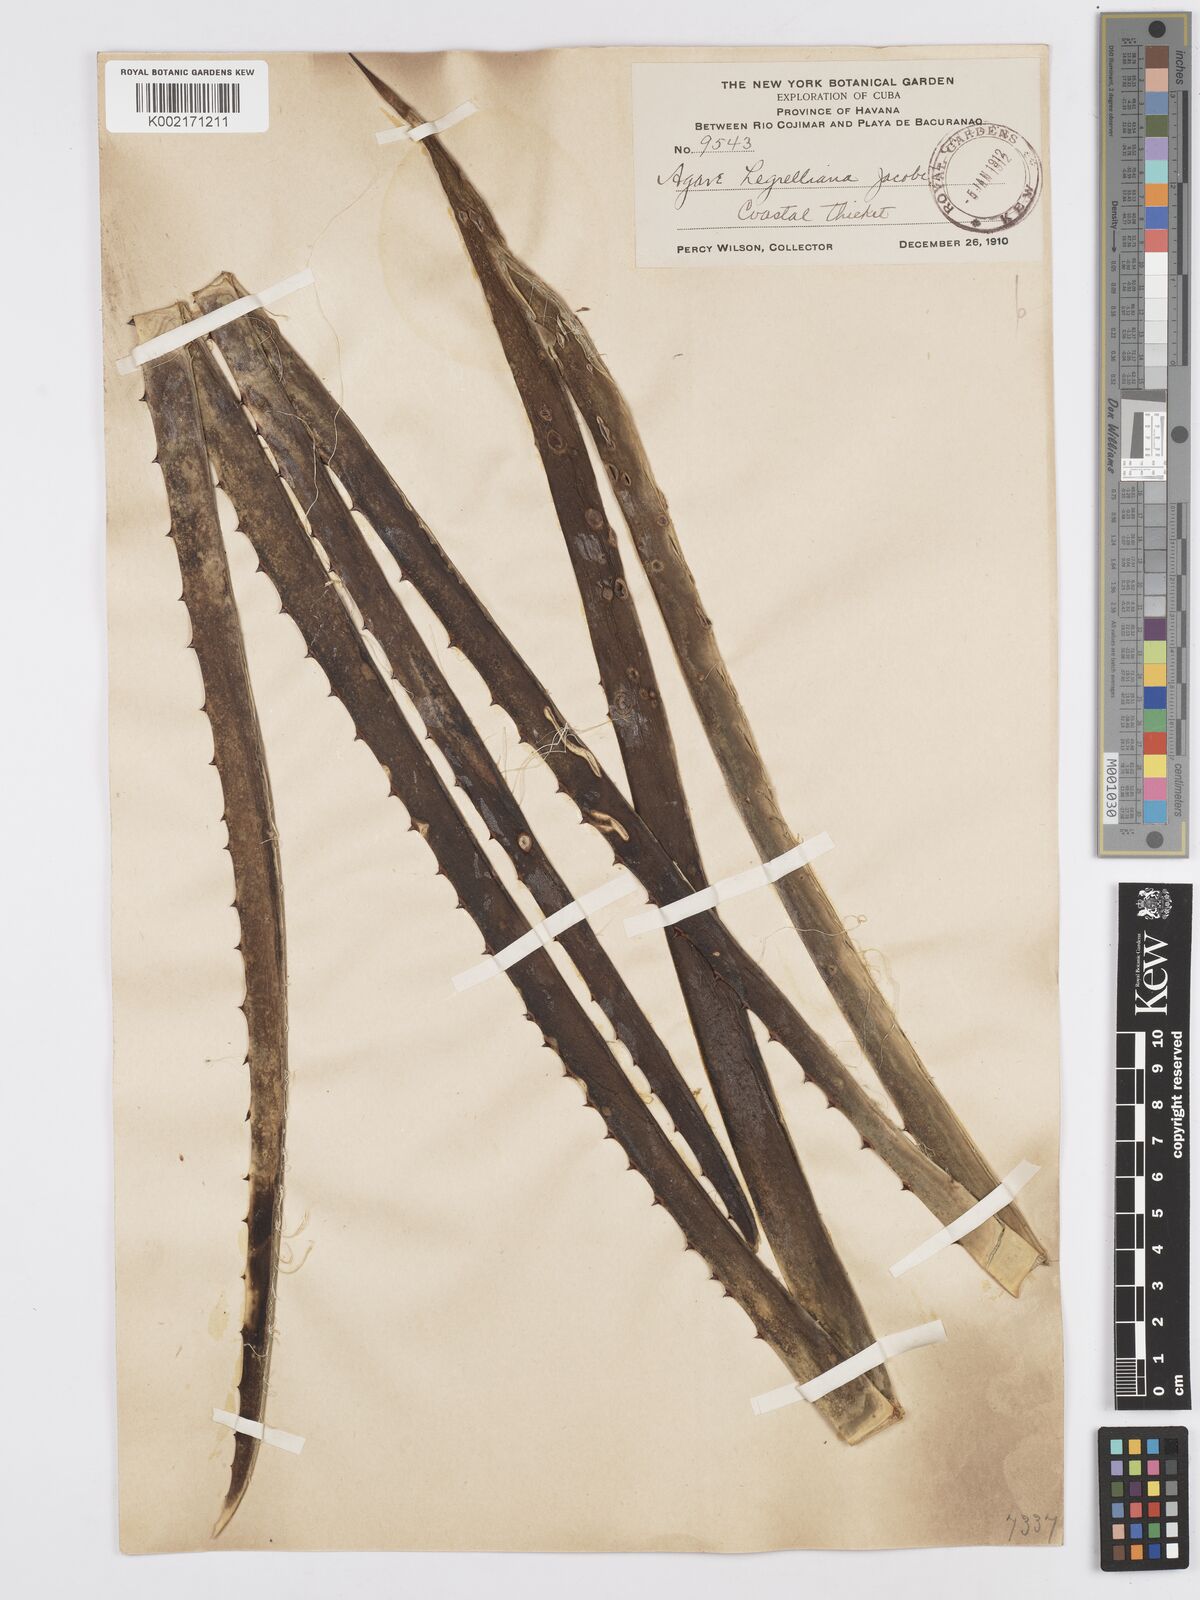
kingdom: Plantae
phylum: Tracheophyta
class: Liliopsida
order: Asparagales
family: Asparagaceae
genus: Agave
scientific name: Agave melanacantha
